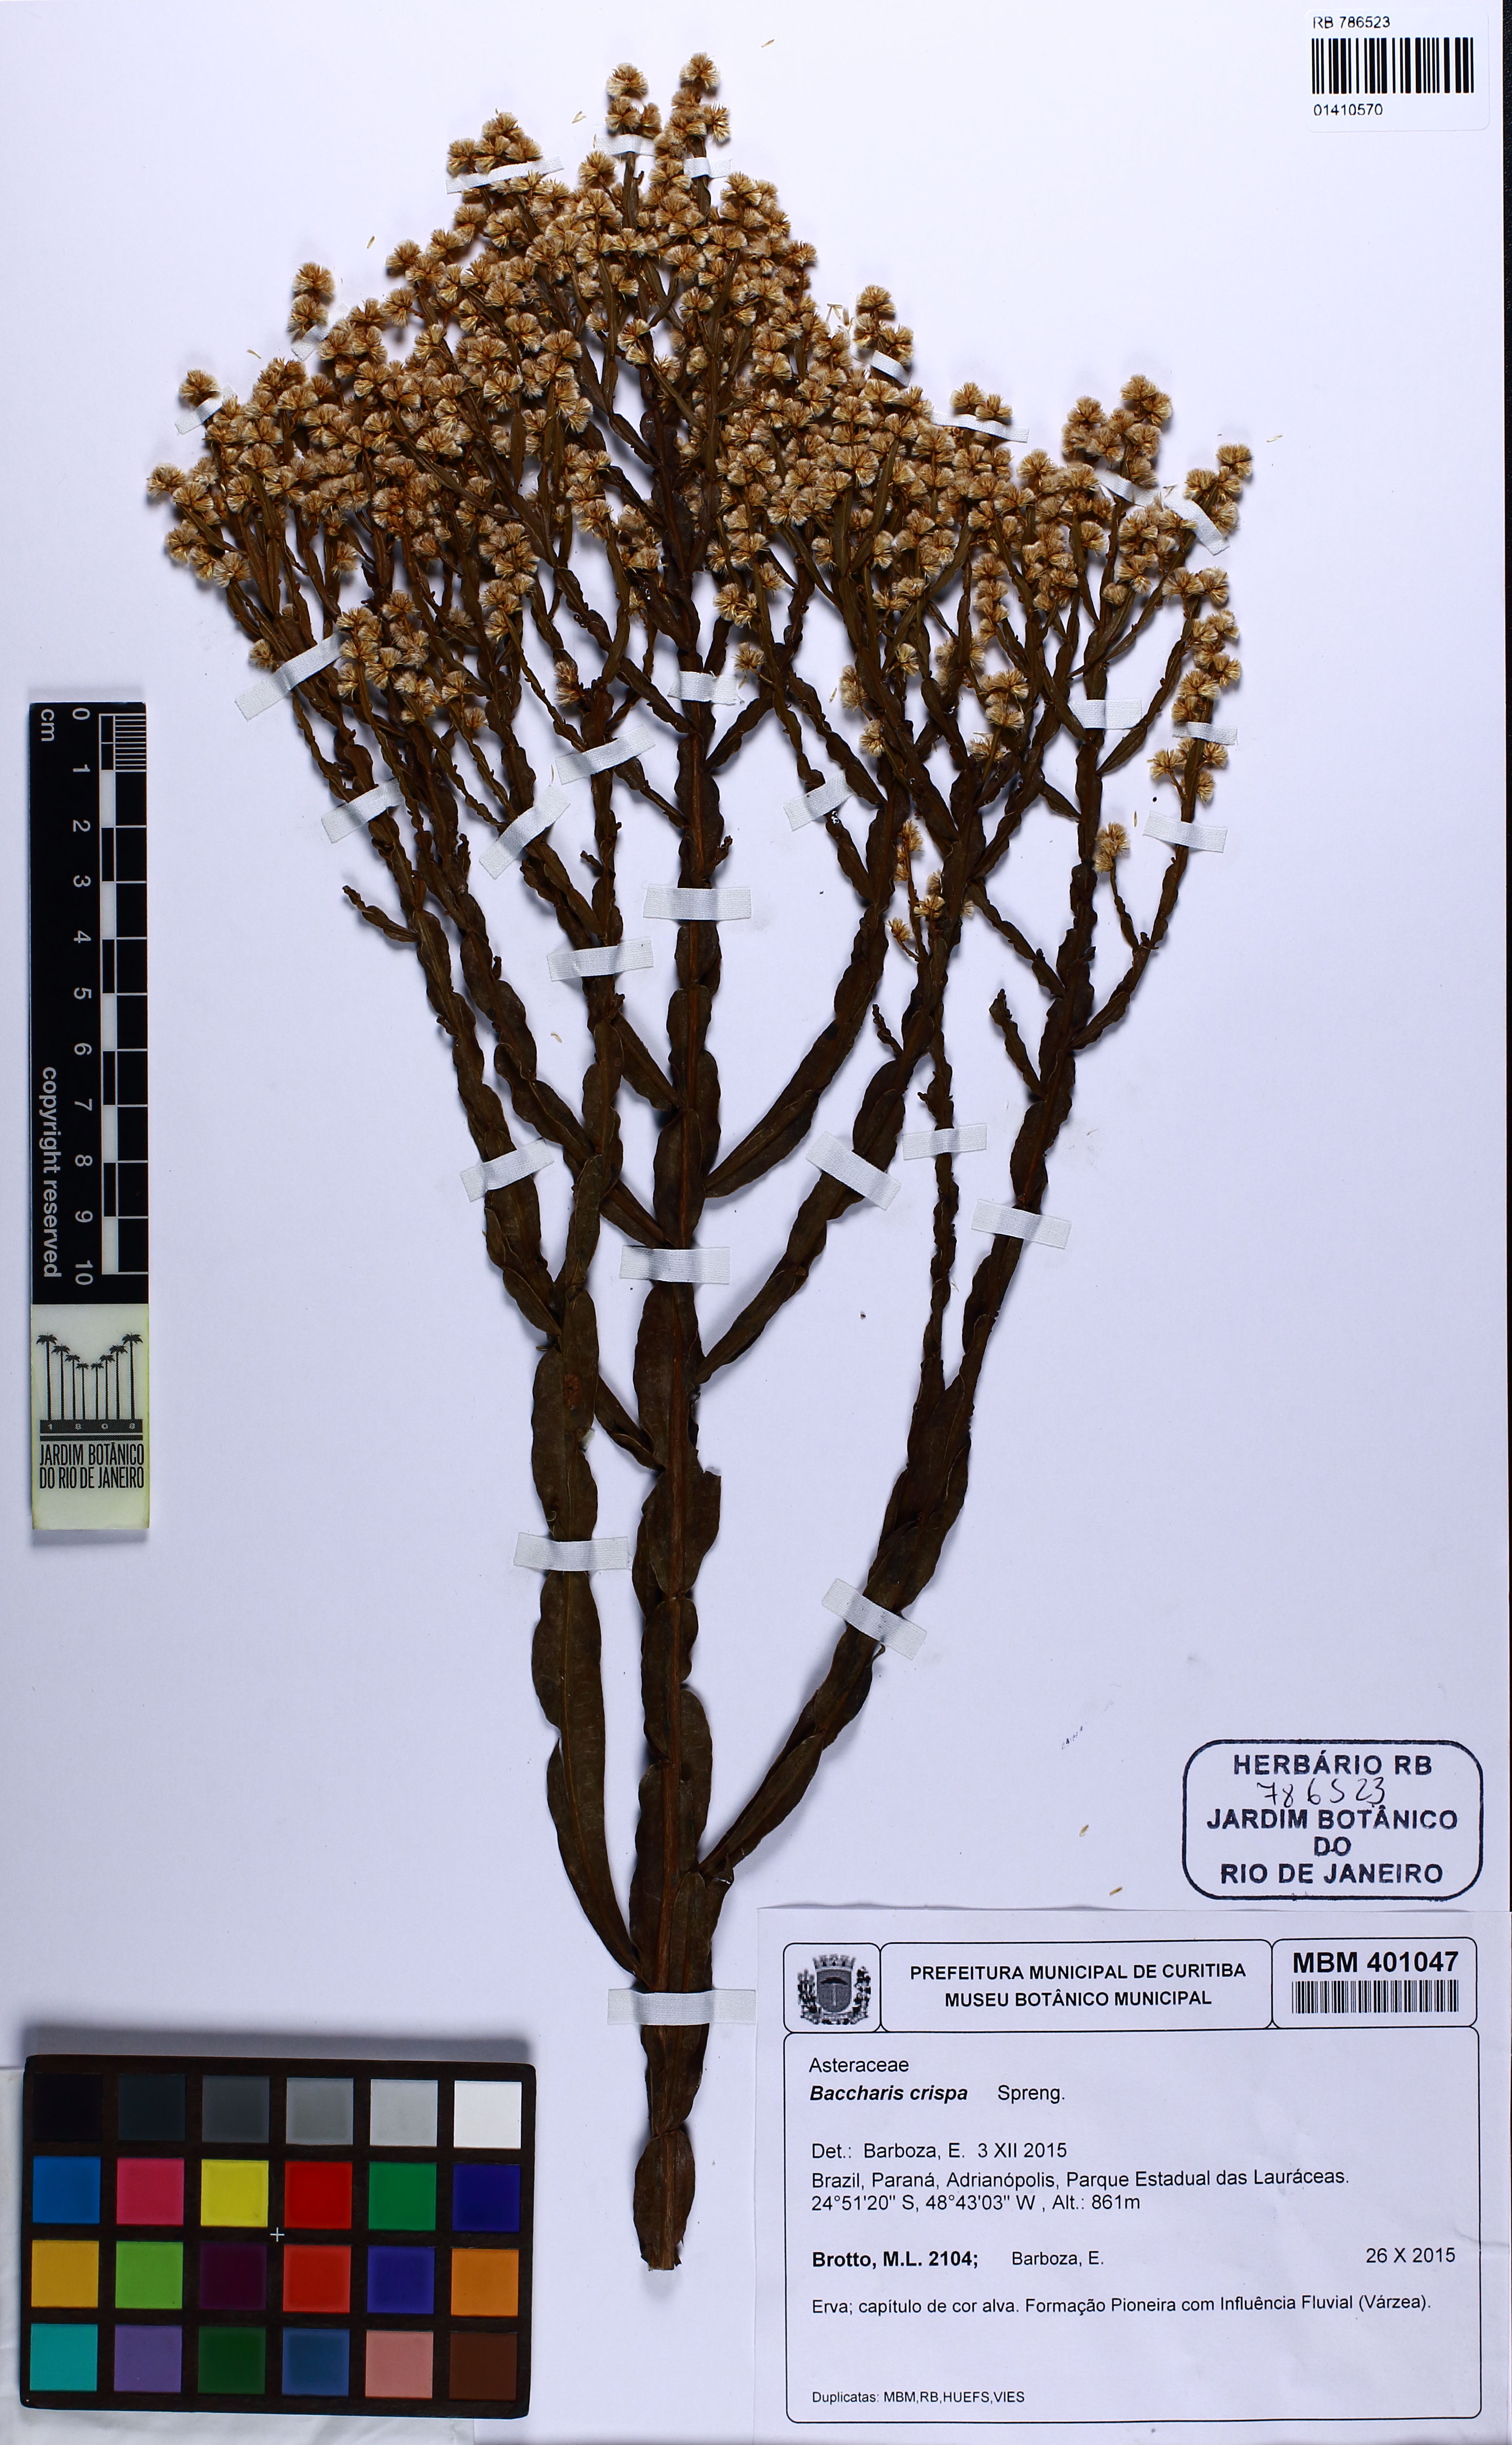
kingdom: Plantae
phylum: Tracheophyta
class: Magnoliopsida
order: Asterales
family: Asteraceae
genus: Baccharis
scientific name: Baccharis crispa
